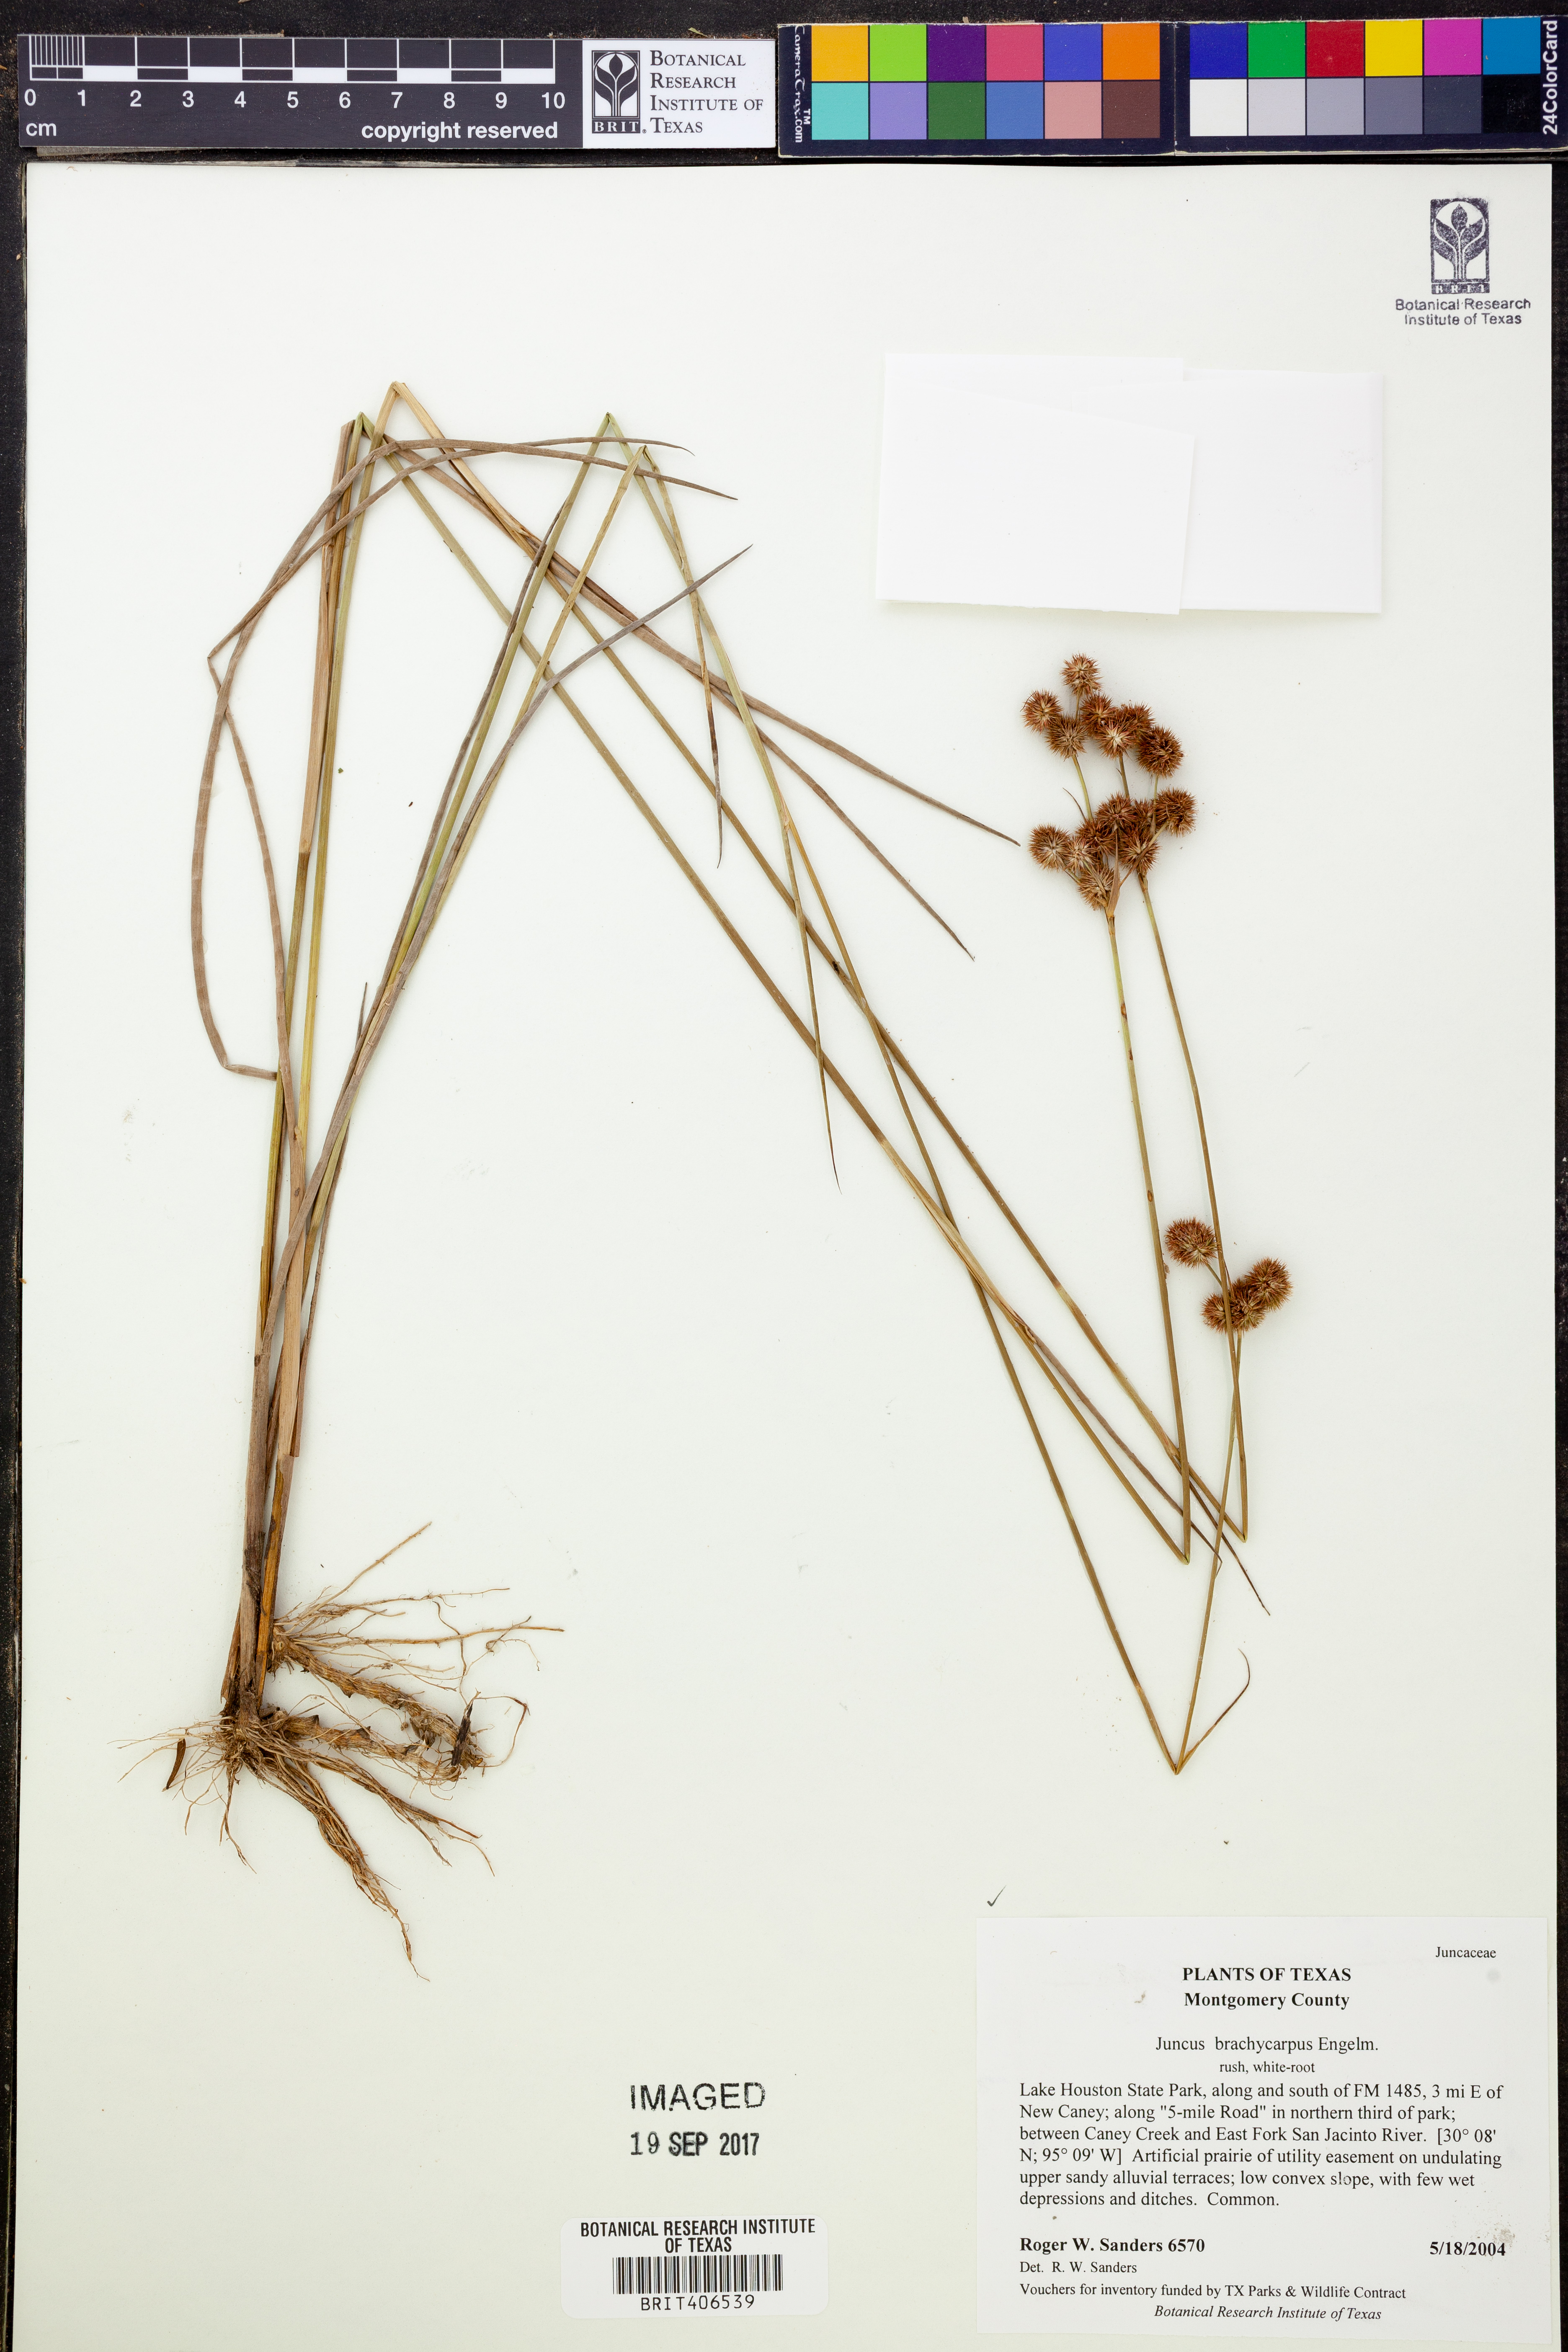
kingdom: Plantae
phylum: Tracheophyta
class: Liliopsida
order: Poales
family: Juncaceae
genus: Juncus
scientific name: Juncus brachycarpus
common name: Shore rush
